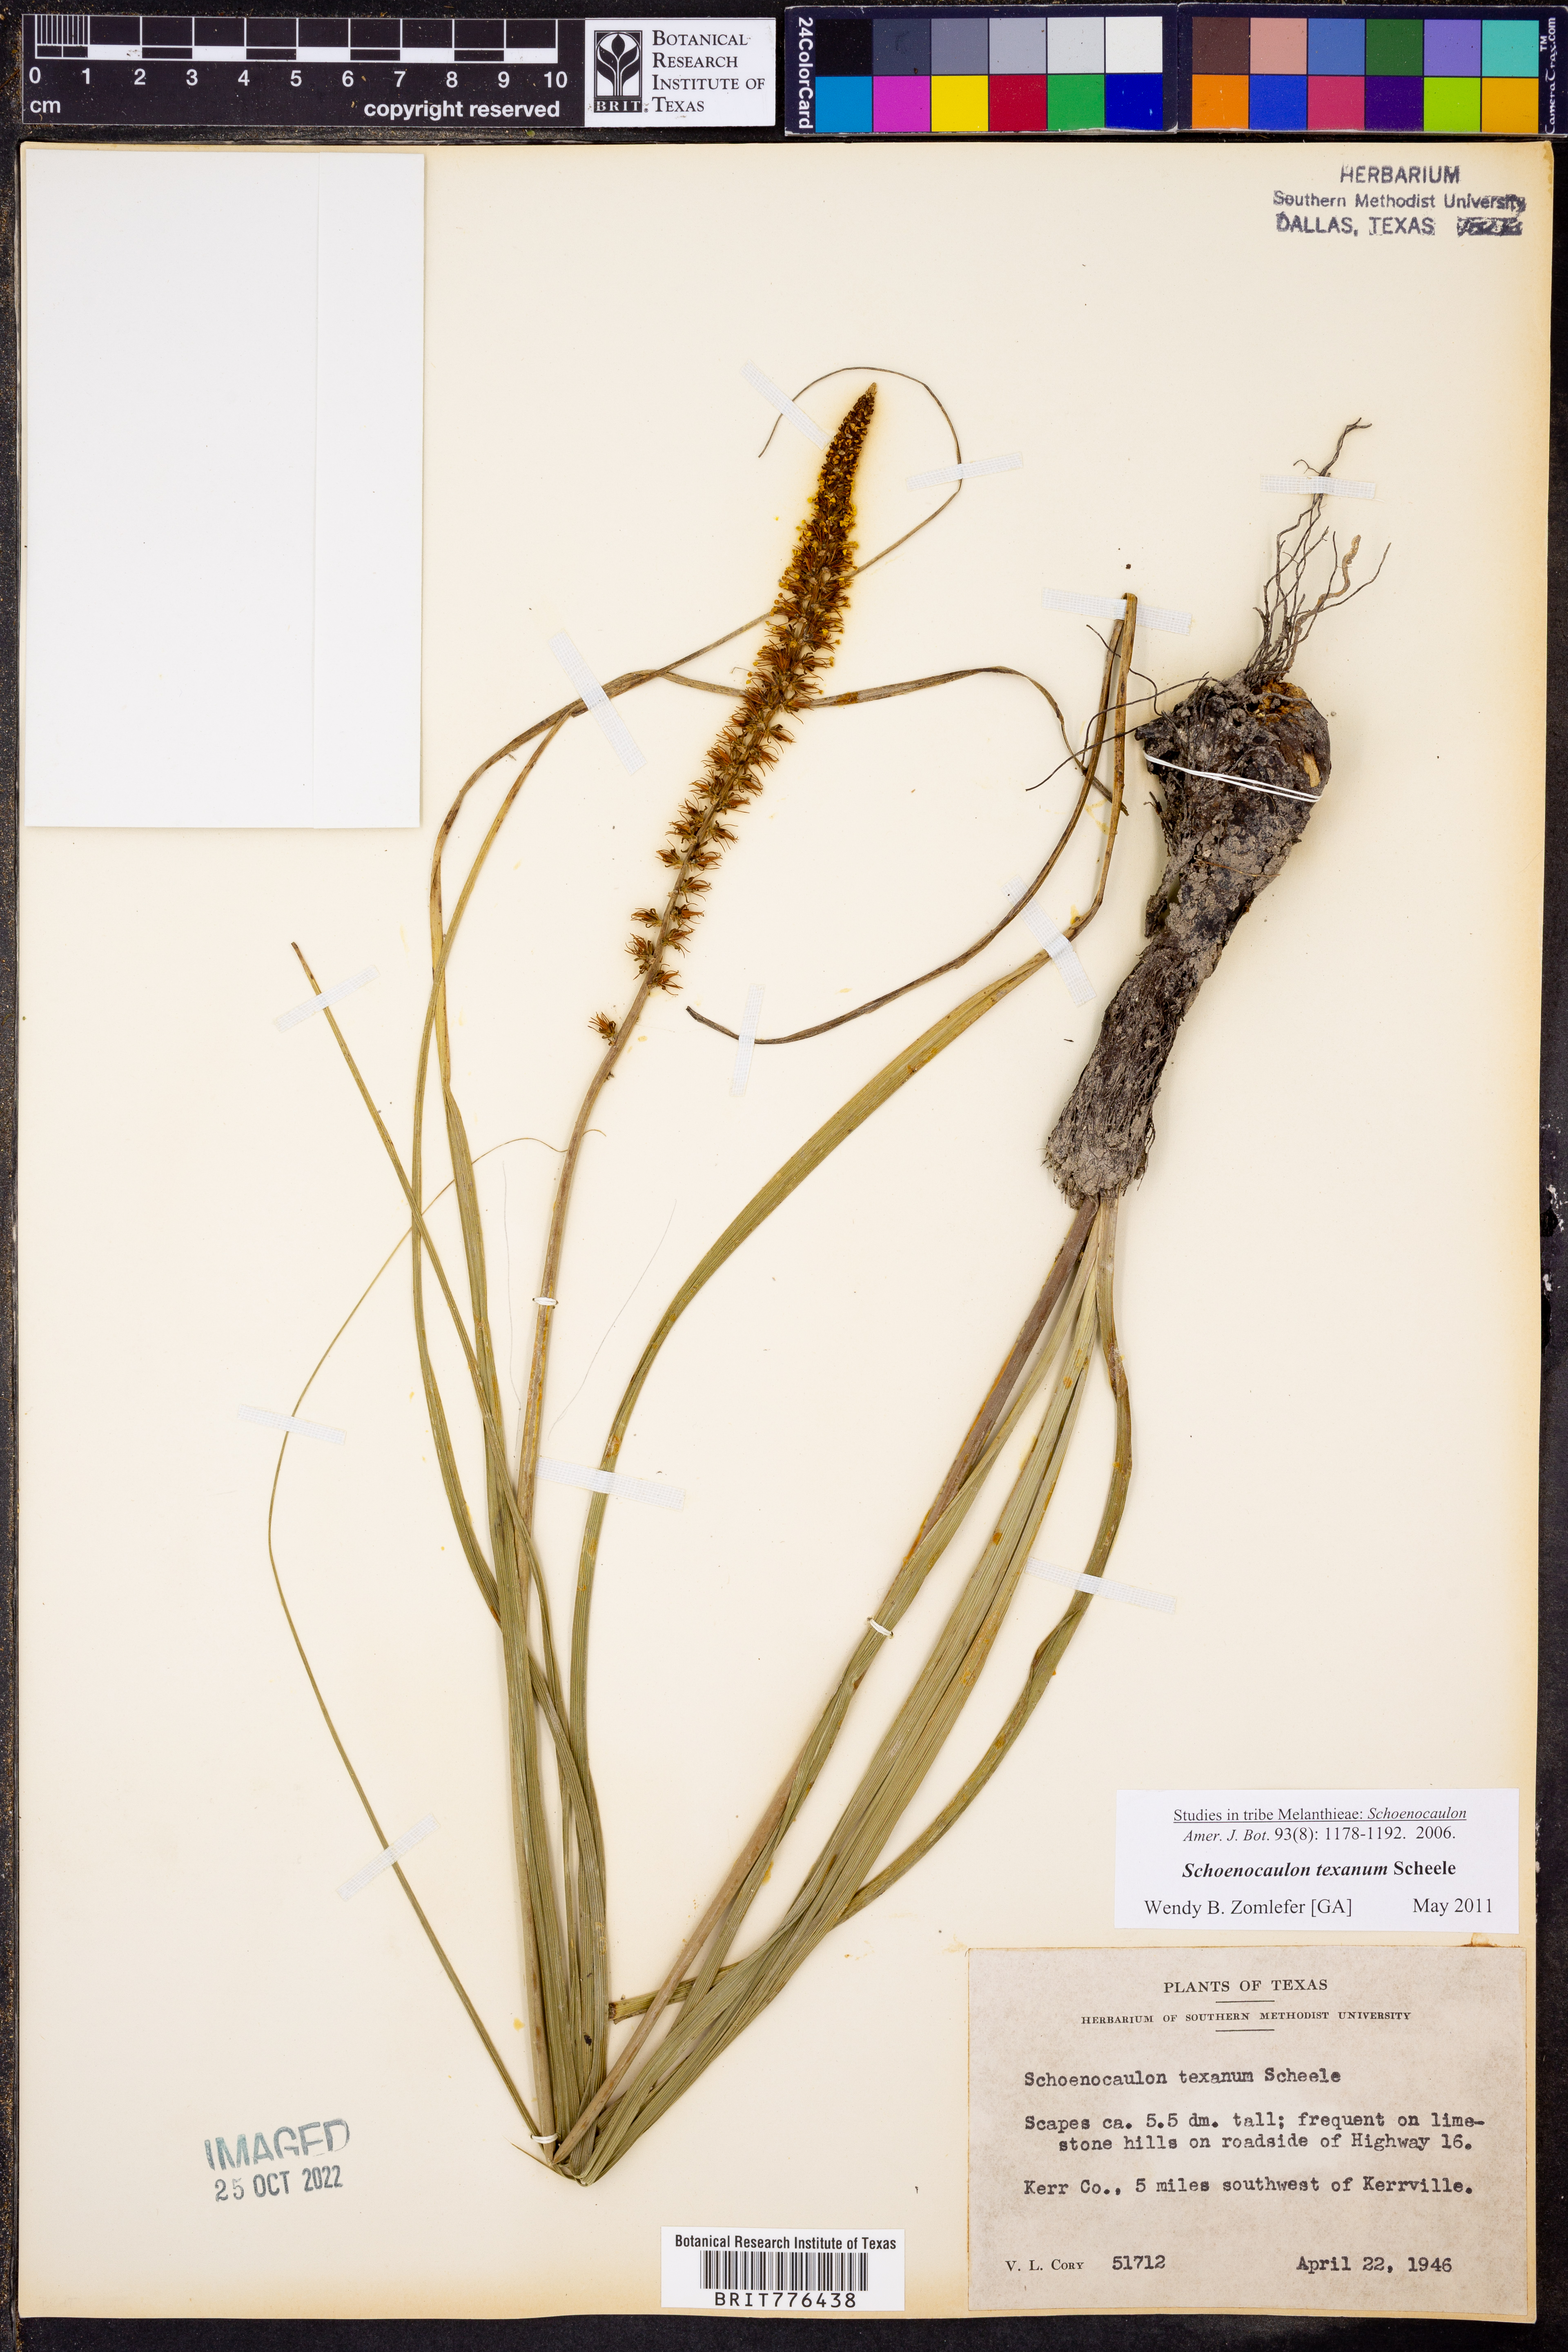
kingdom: Plantae
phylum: Tracheophyta
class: Liliopsida
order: Liliales
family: Melanthiaceae
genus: Schoenocaulon
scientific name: Schoenocaulon texanum
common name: Texas feather-shank
